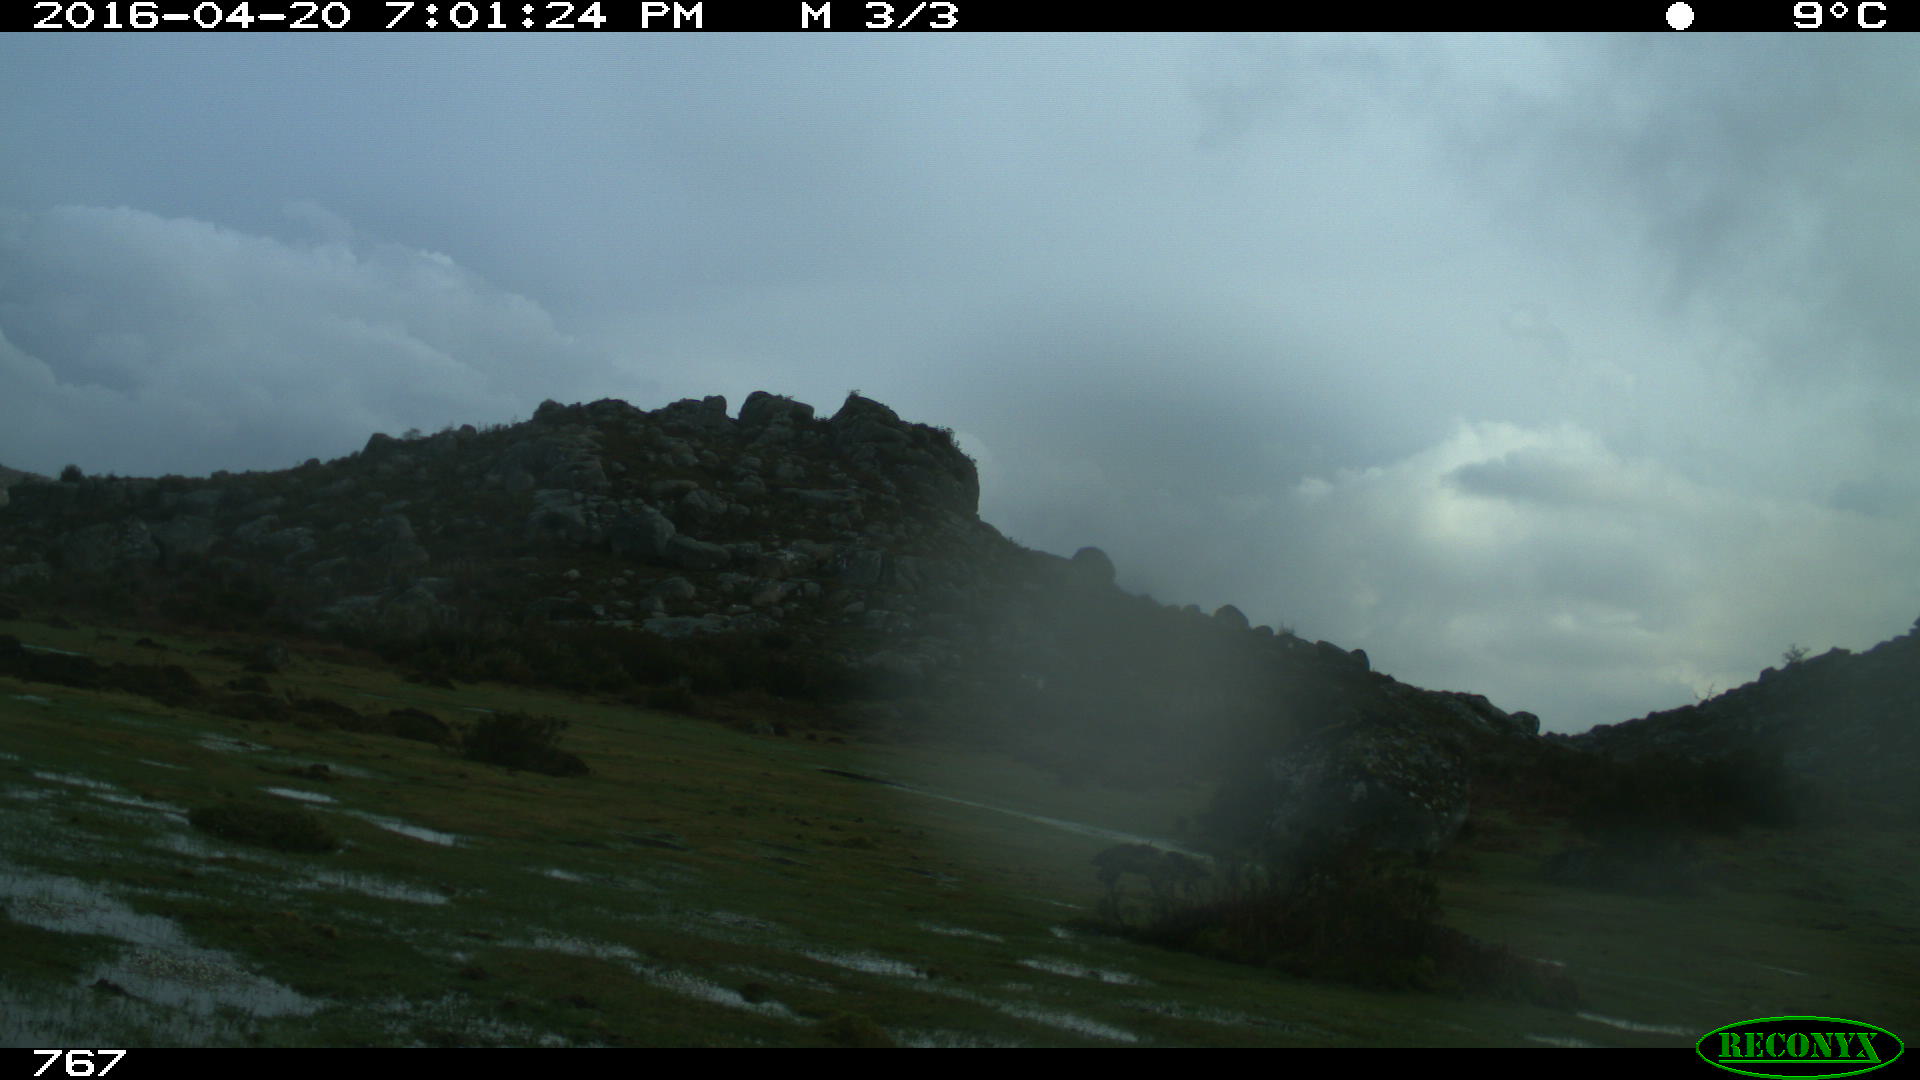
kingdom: Animalia
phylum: Chordata
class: Mammalia
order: Artiodactyla
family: Bovidae
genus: Bos
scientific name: Bos taurus
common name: Domesticated cattle
